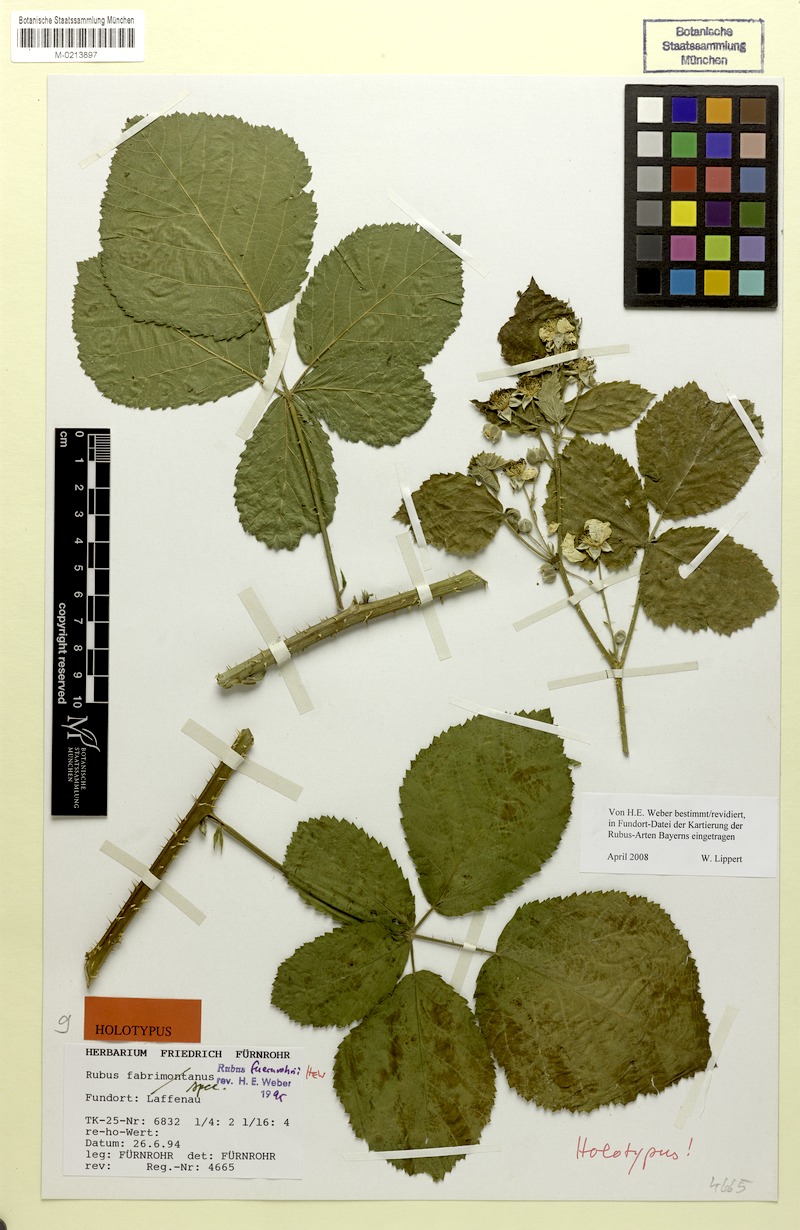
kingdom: Plantae
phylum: Tracheophyta
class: Magnoliopsida
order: Rosales
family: Rosaceae
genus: Rubus
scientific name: Rubus fuernrohrii
